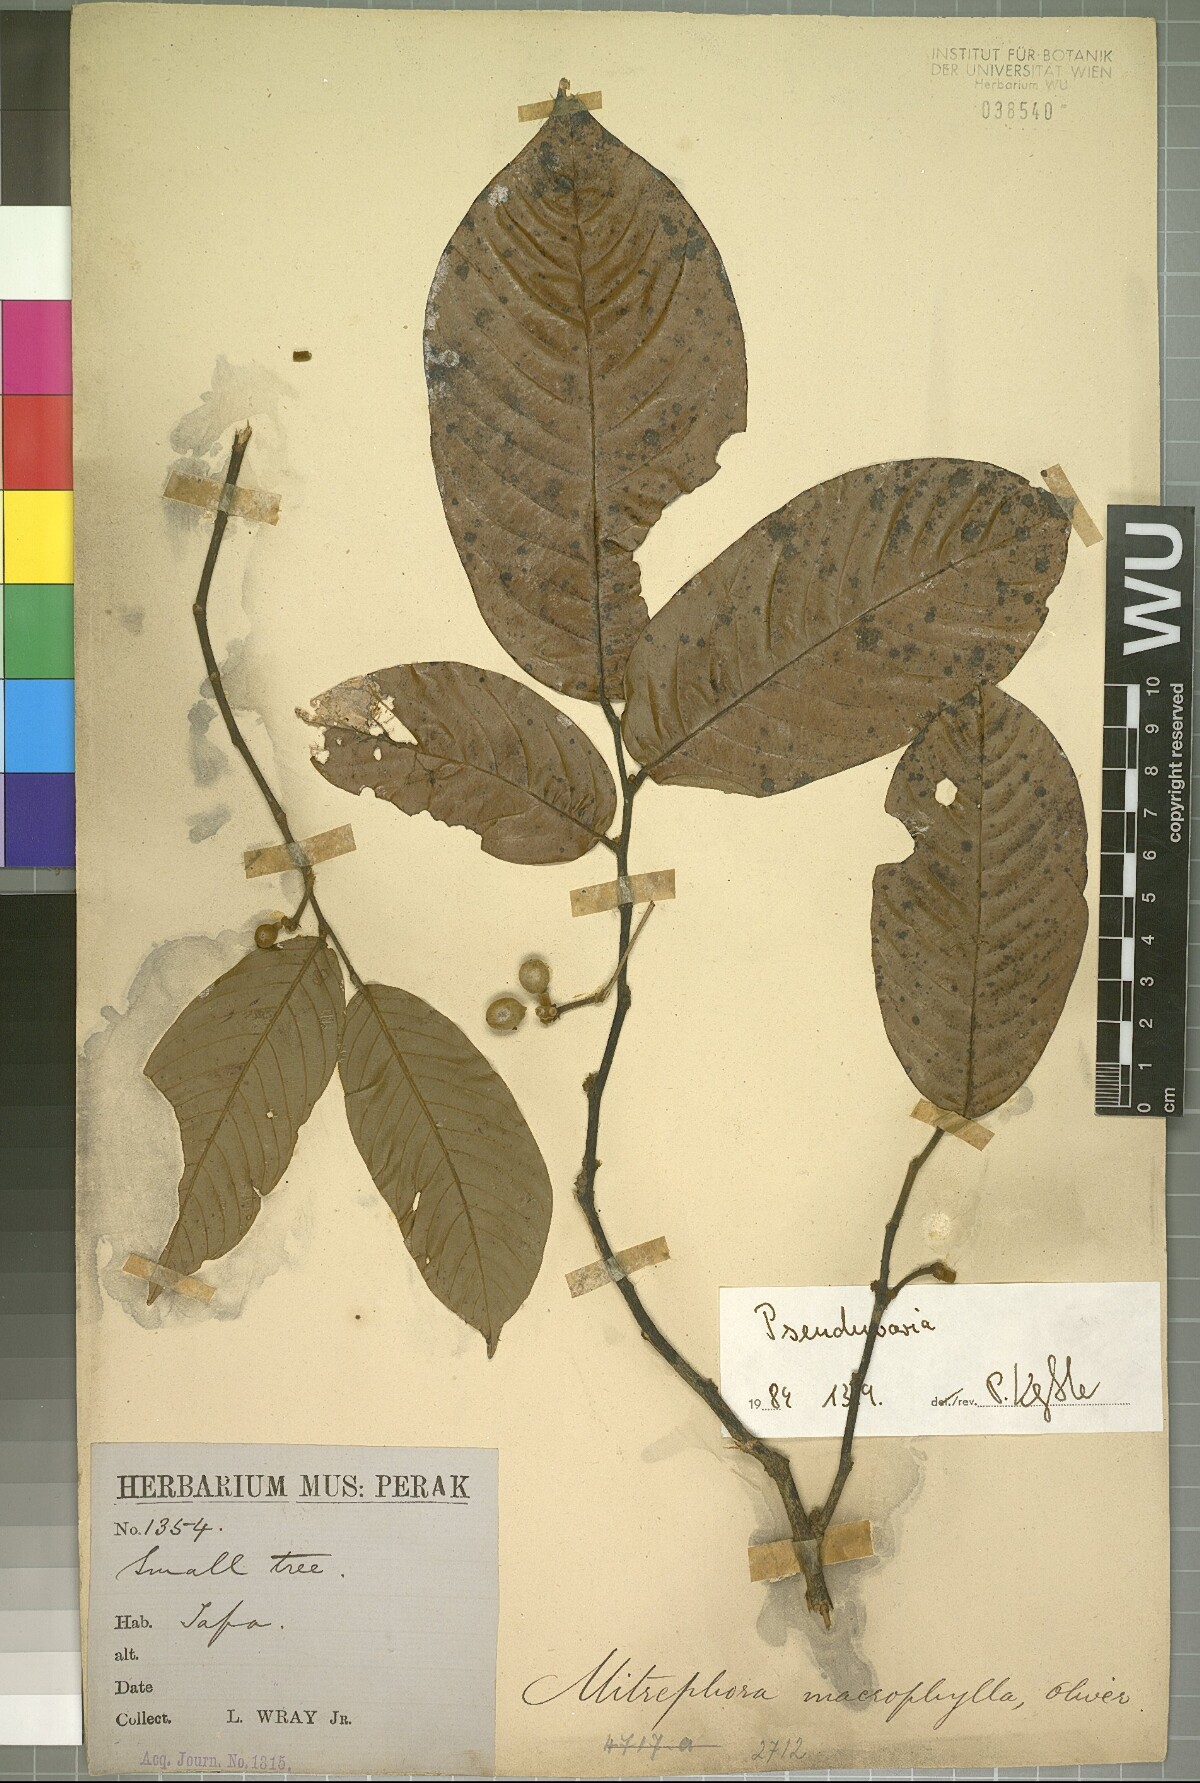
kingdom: Plantae
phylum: Tracheophyta
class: Magnoliopsida
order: Magnoliales
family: Annonaceae
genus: Pseuduvaria
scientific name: Pseuduvaria
